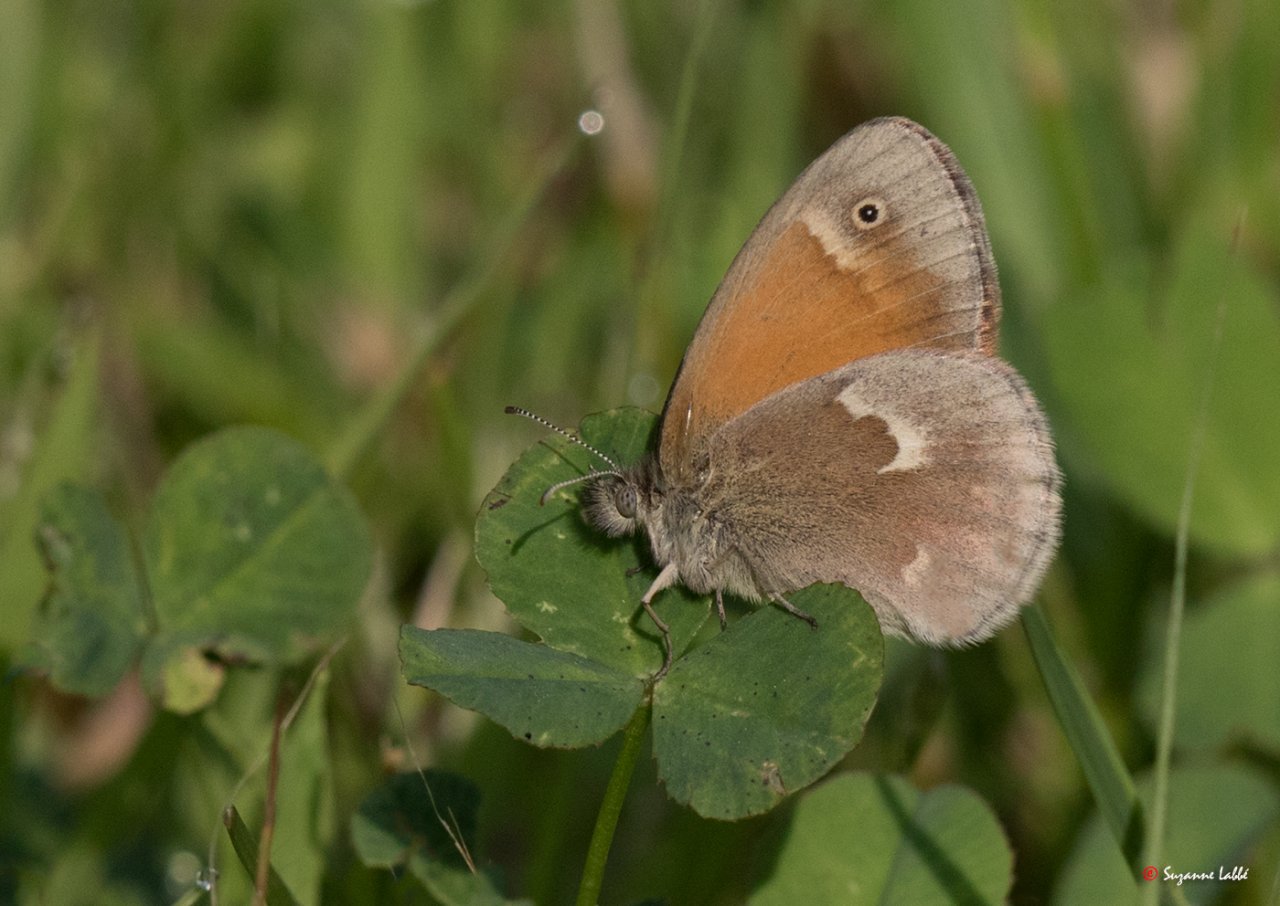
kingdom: Animalia
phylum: Arthropoda
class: Insecta
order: Lepidoptera
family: Nymphalidae
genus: Coenonympha
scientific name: Coenonympha tullia
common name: Large Heath
